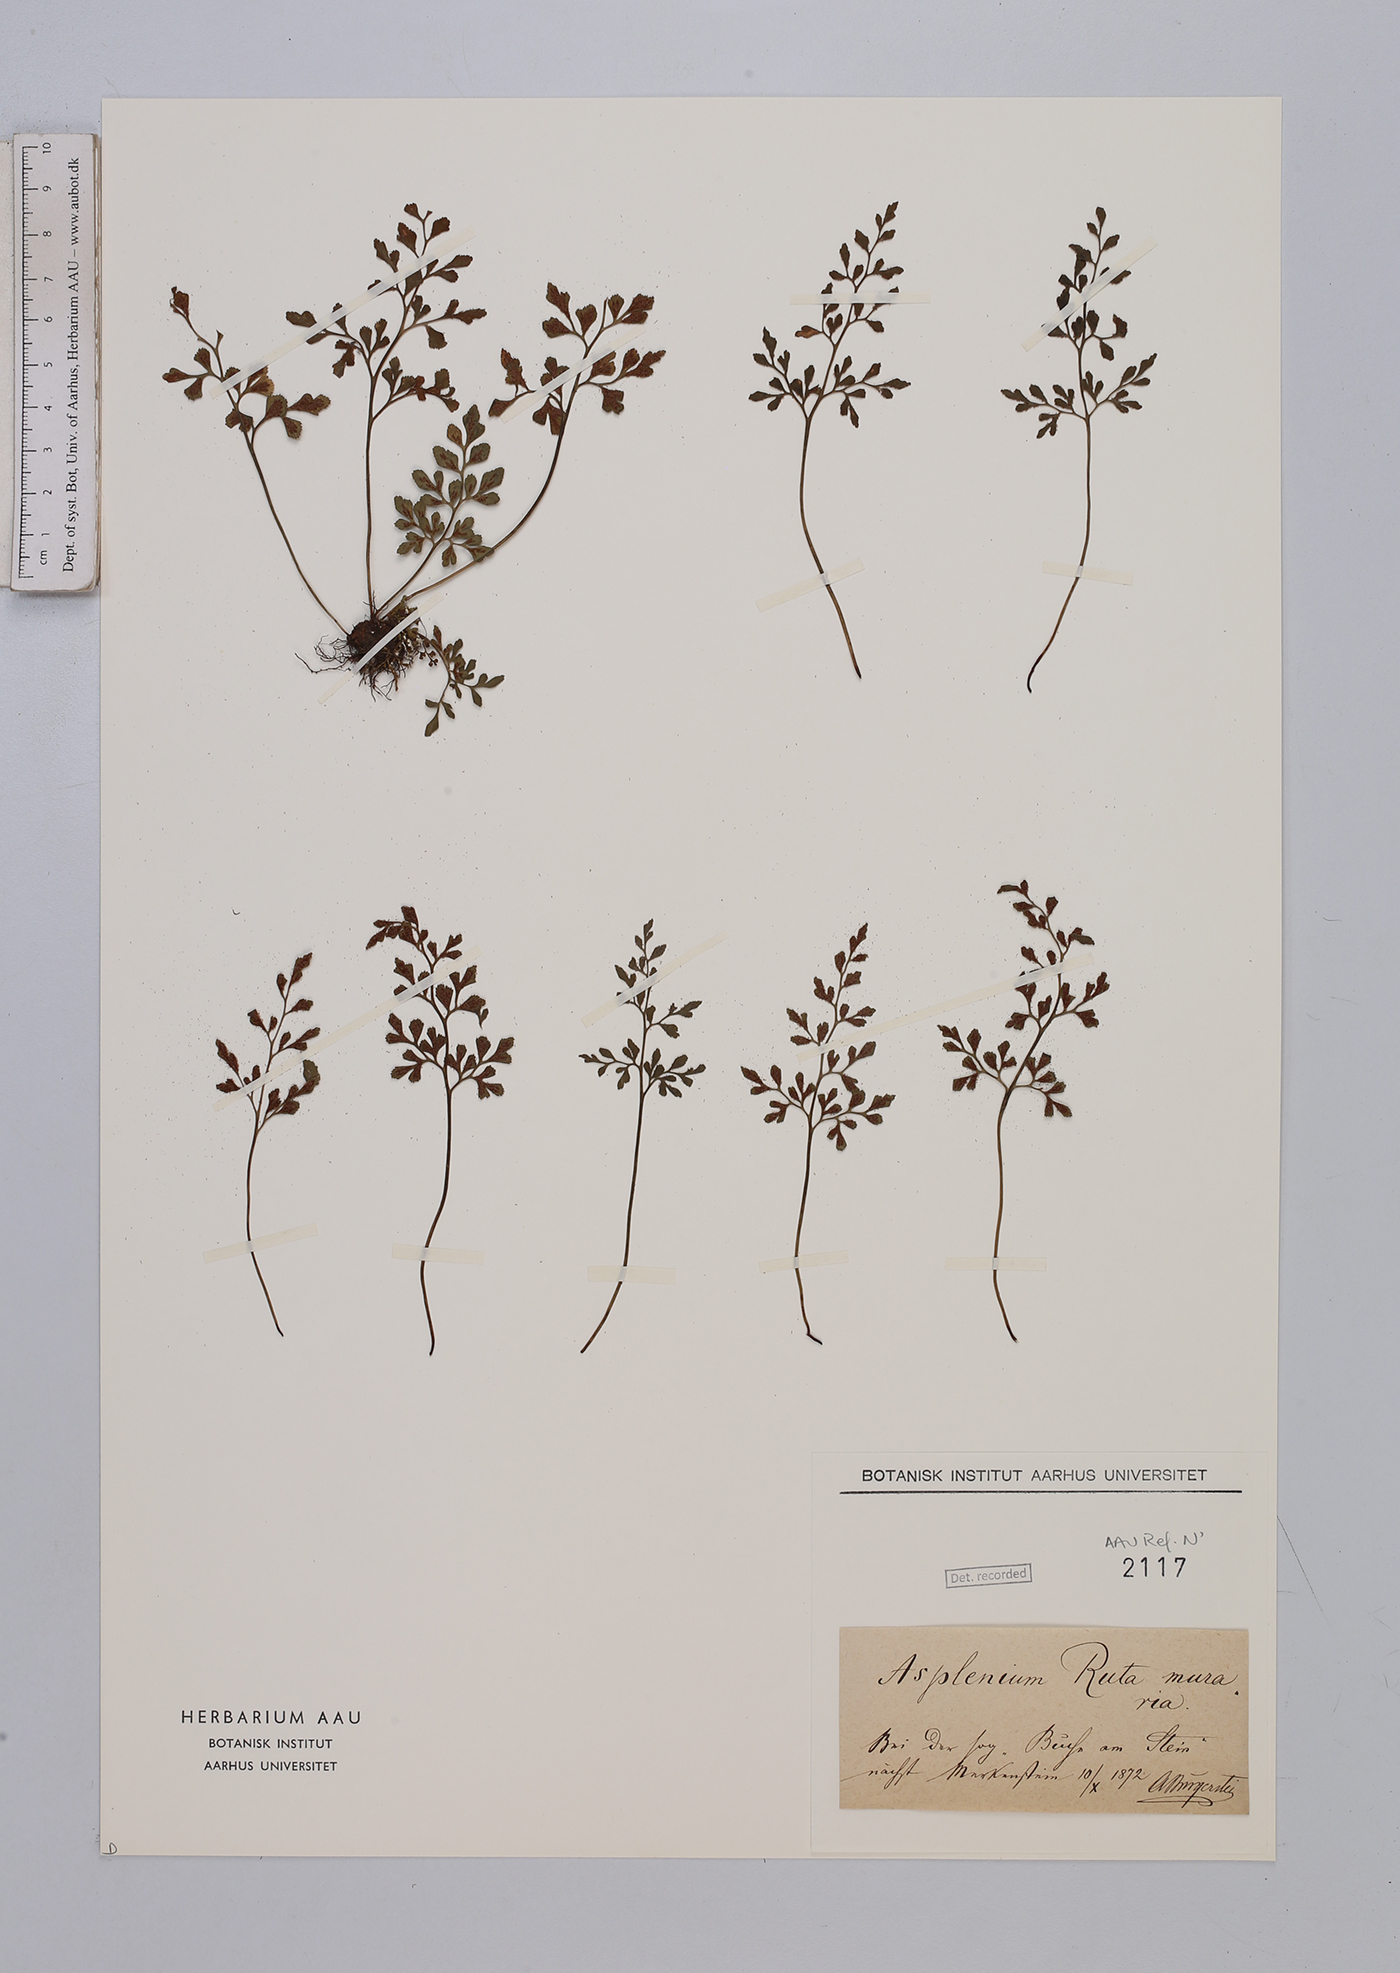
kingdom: Plantae
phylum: Tracheophyta
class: Polypodiopsida
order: Polypodiales
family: Aspleniaceae
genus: Asplenium
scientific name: Asplenium ruta-muraria
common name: Wall-rue
